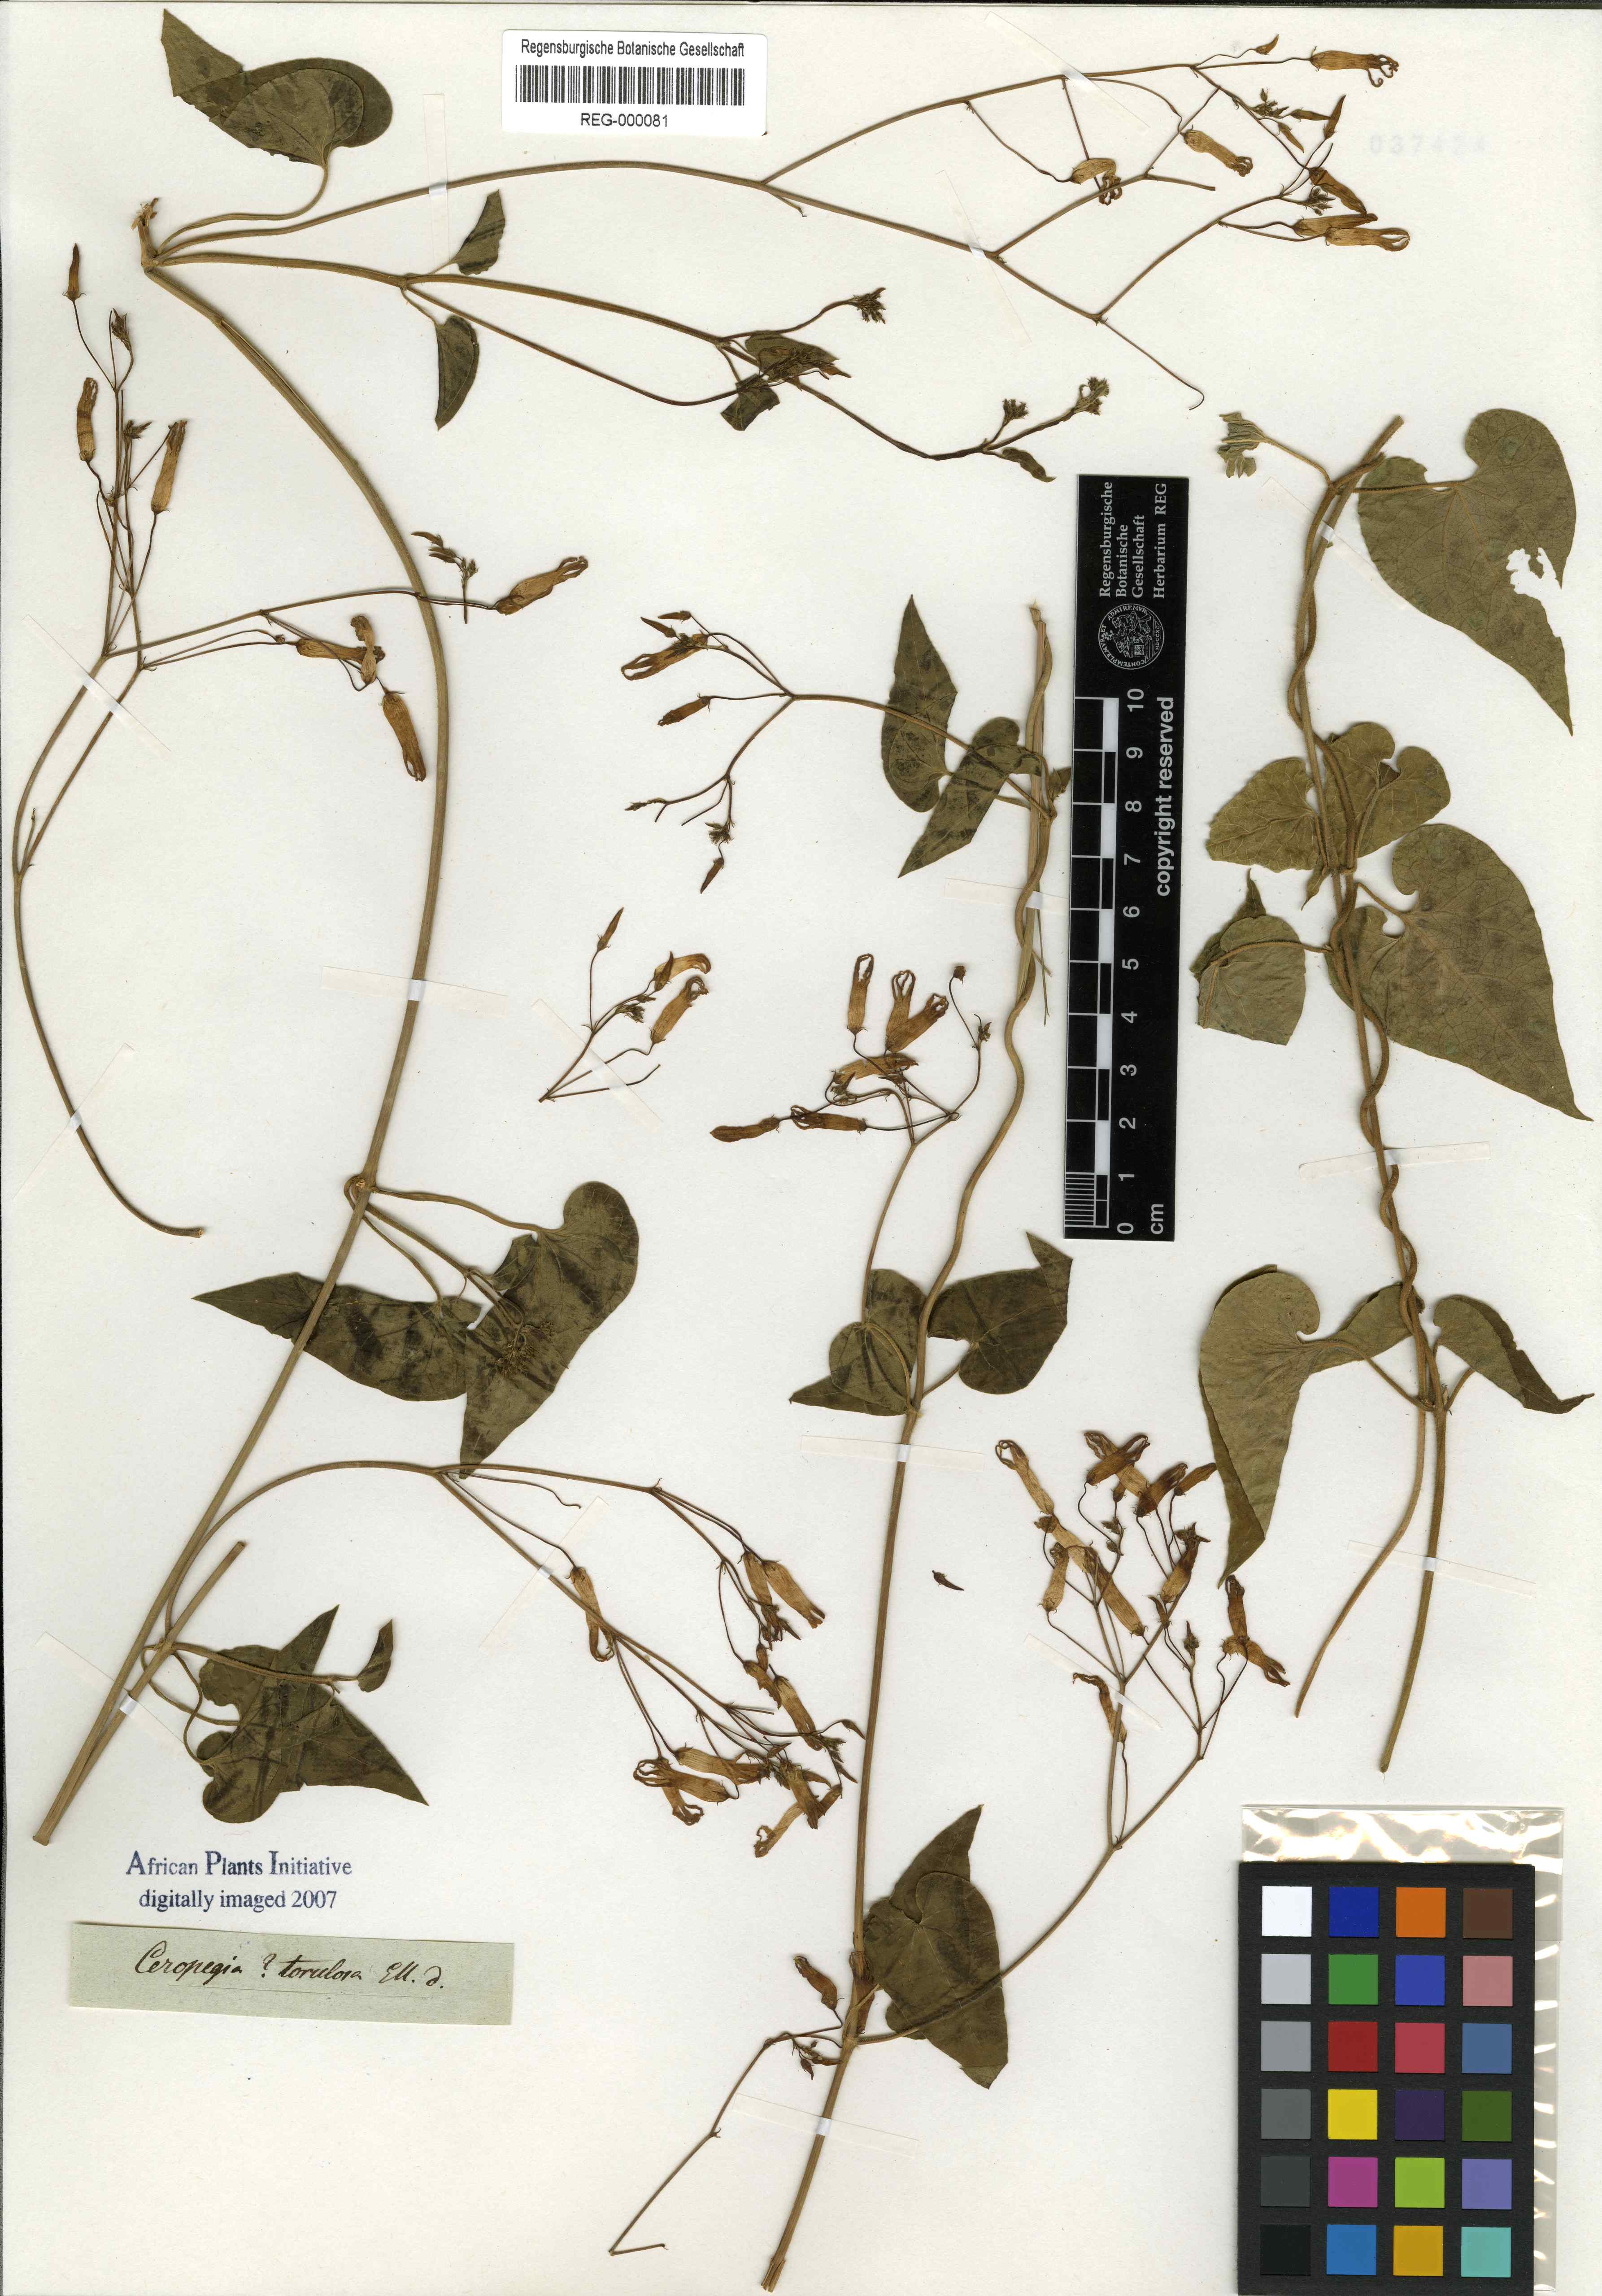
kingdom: Plantae
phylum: Tracheophyta
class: Magnoliopsida
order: Gentianales
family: Apocynaceae
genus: Riocreuxia
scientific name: Riocreuxia torulosa
